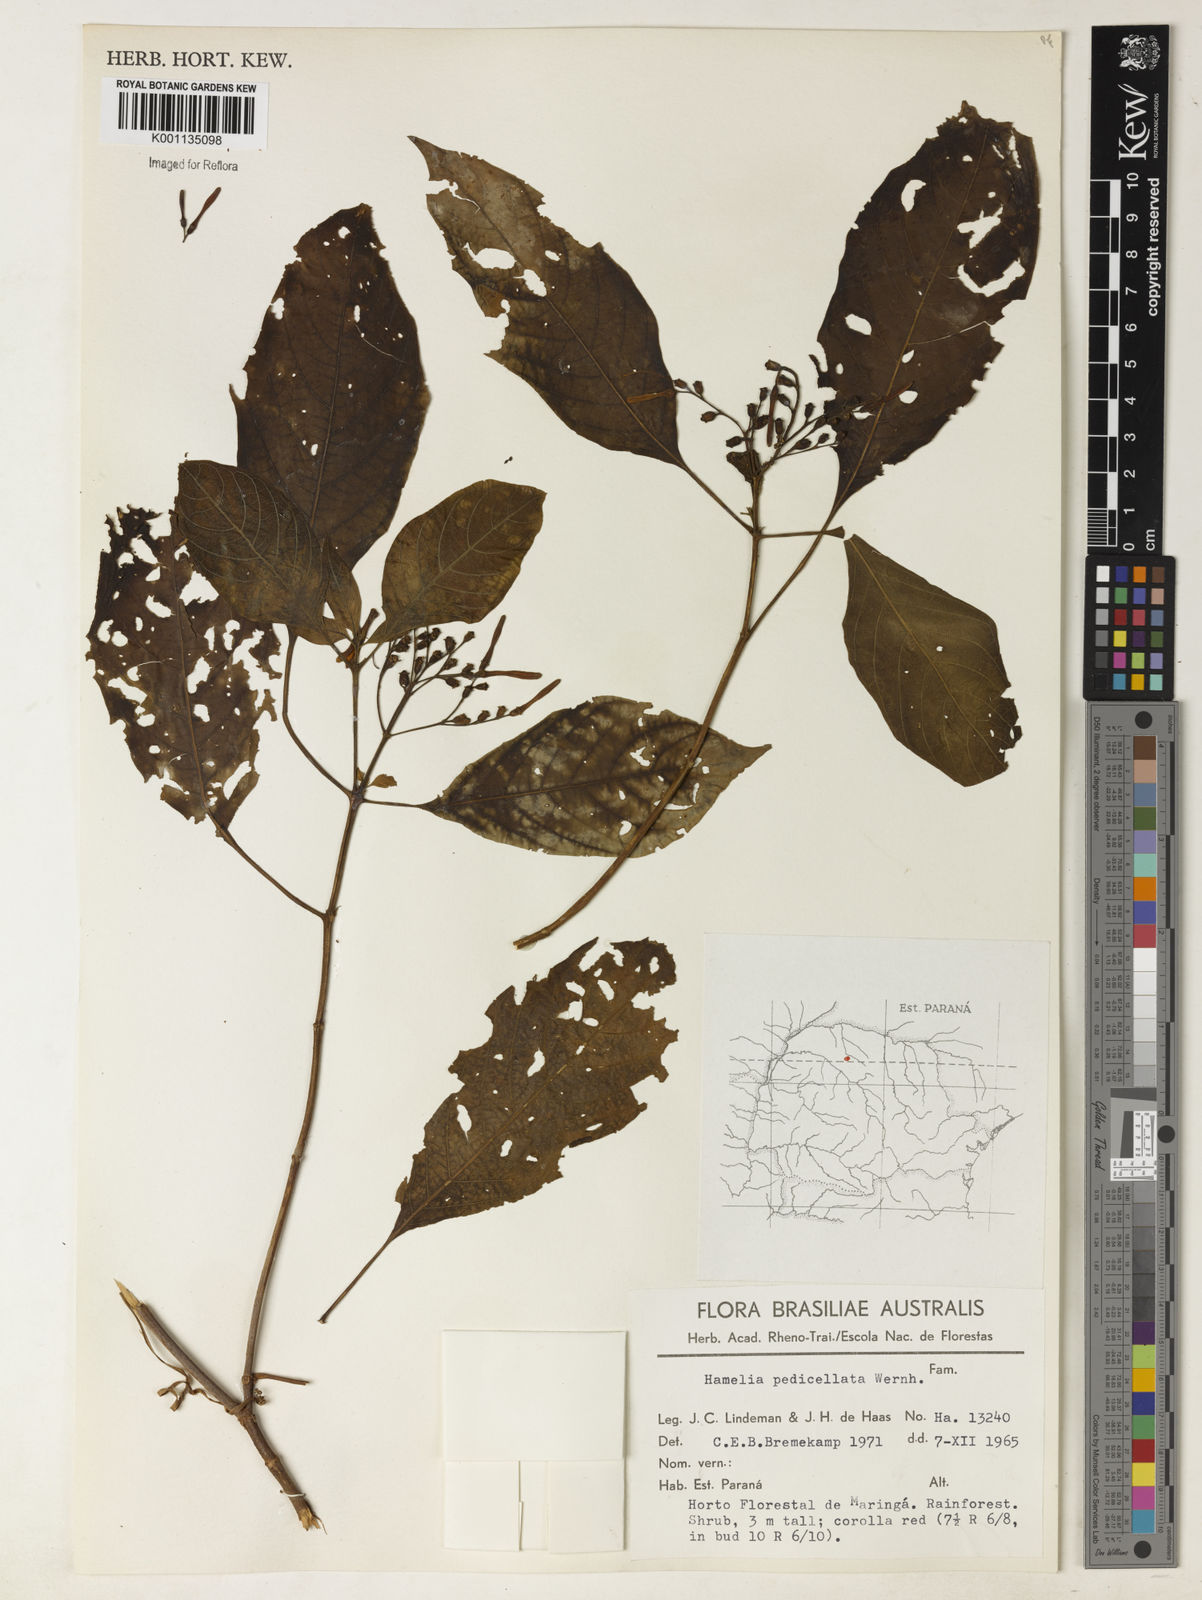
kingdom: Plantae
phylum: Tracheophyta
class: Magnoliopsida
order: Gentianales
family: Rubiaceae
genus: Hamelia
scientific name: Hamelia patens
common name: Redhead
